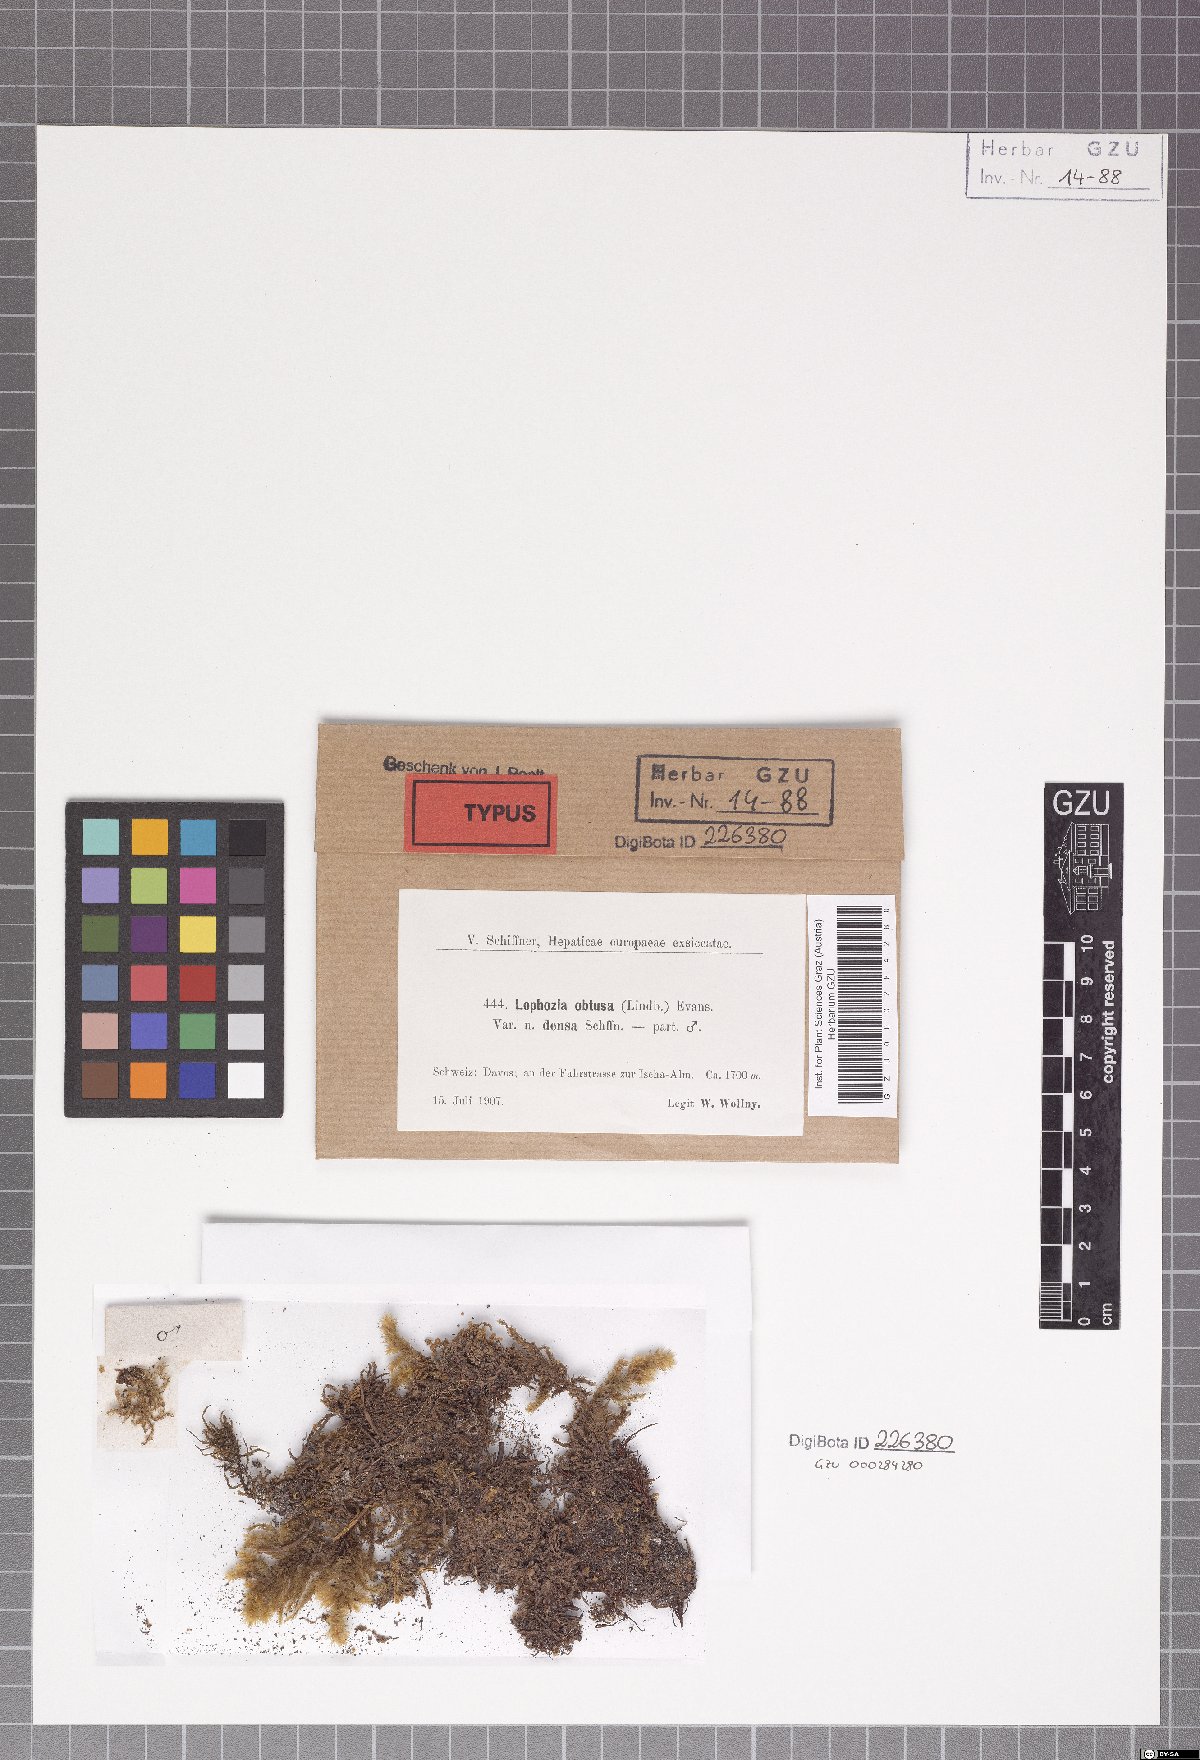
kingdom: Plantae
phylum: Marchantiophyta
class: Jungermanniopsida
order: Jungermanniales
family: Obtusifoliaceae
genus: Obtusifolium
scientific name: Obtusifolium obtusum
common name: Obtuse notchwort
